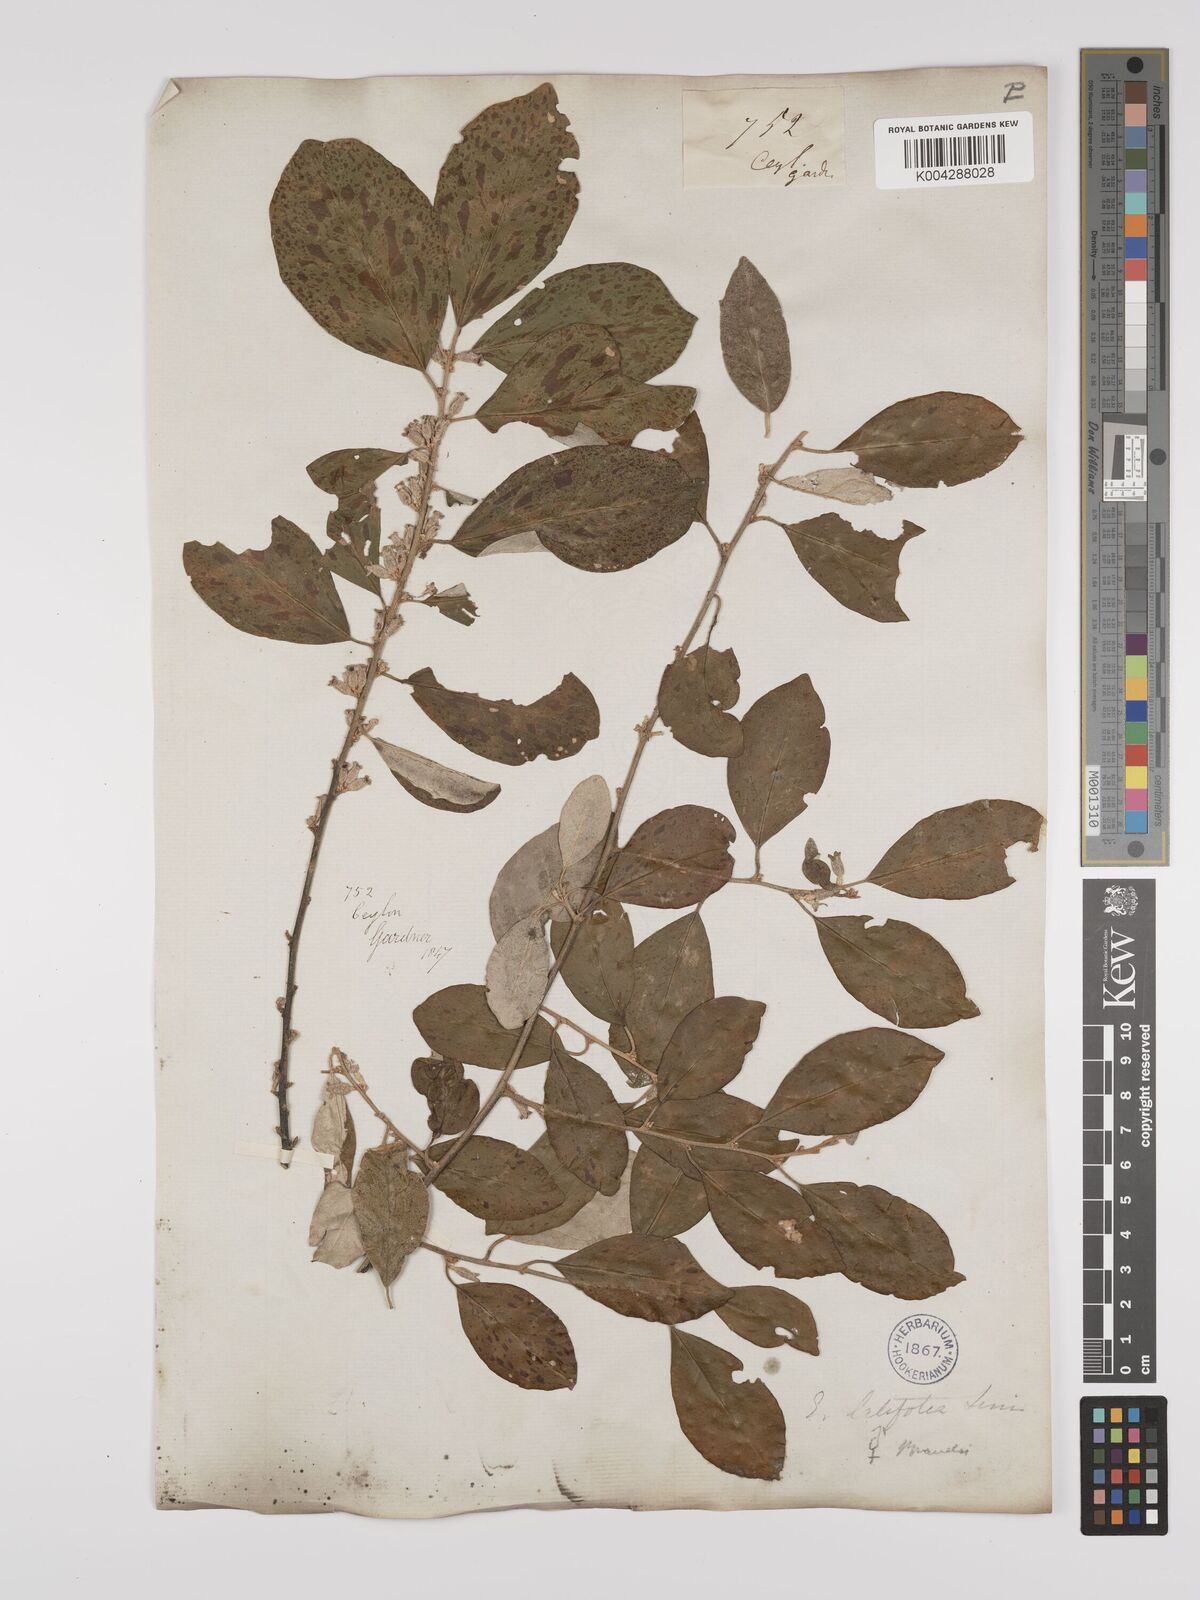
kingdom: Plantae
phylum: Tracheophyta
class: Magnoliopsida
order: Rosales
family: Elaeagnaceae
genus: Elaeagnus
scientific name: Elaeagnus latifolia
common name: Oleaster
